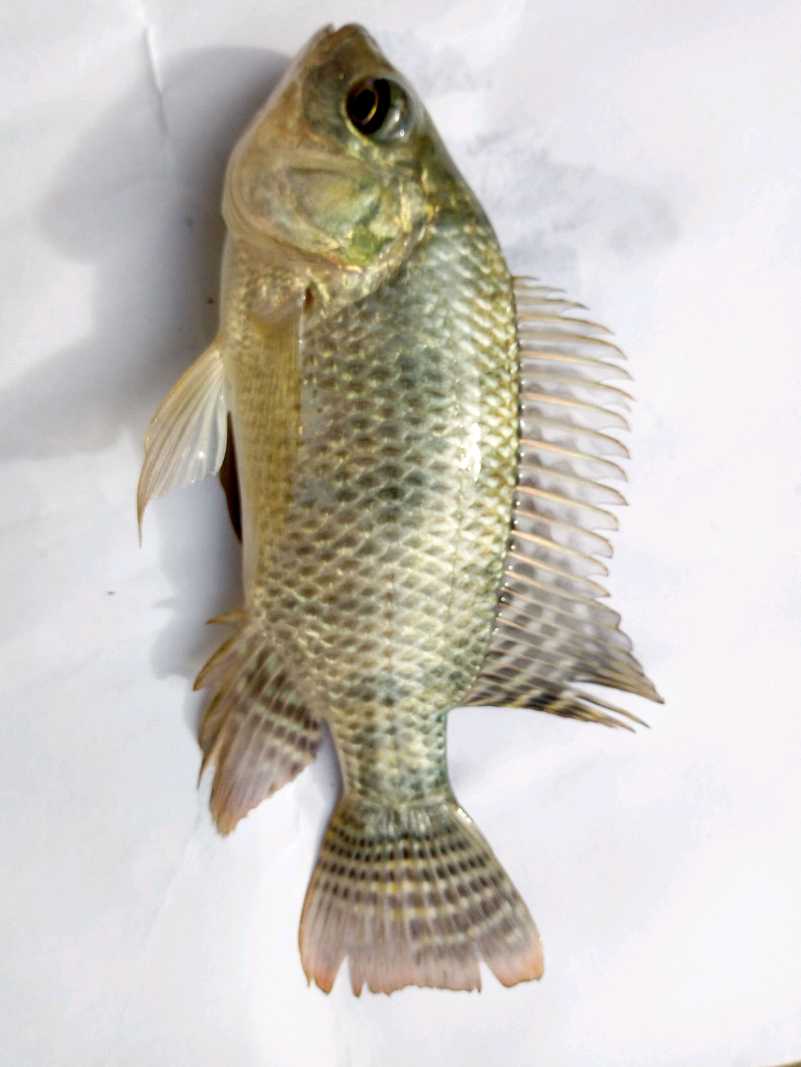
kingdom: Animalia
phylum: Chordata
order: Perciformes
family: Cichlidae
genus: Oreochromis
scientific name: Oreochromis niloticus
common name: Nile tilapia
